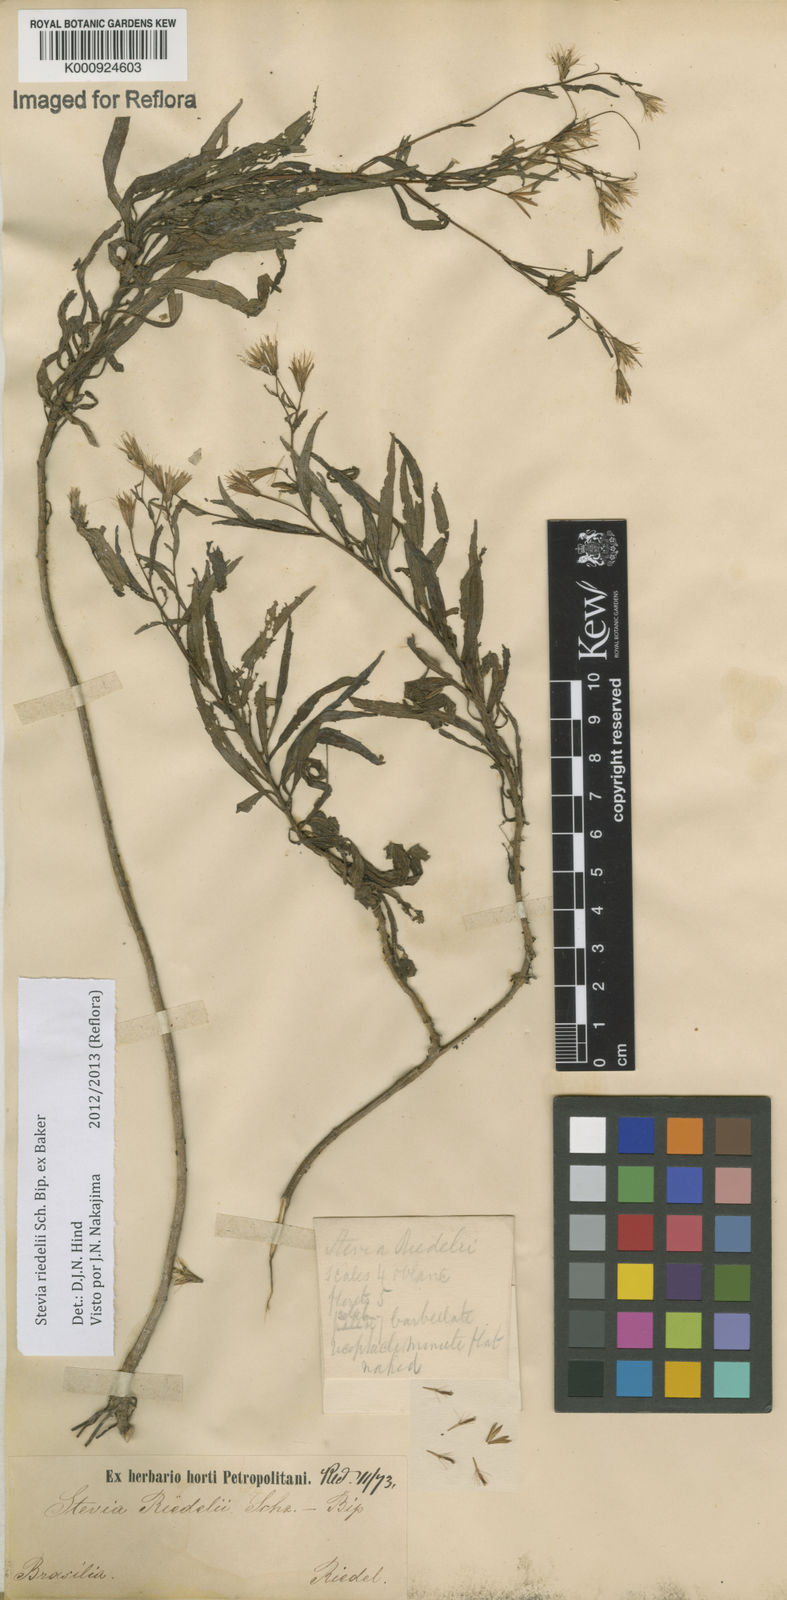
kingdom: Plantae
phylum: Tracheophyta
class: Magnoliopsida
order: Asterales
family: Asteraceae
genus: Stevia
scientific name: Stevia riedelii
